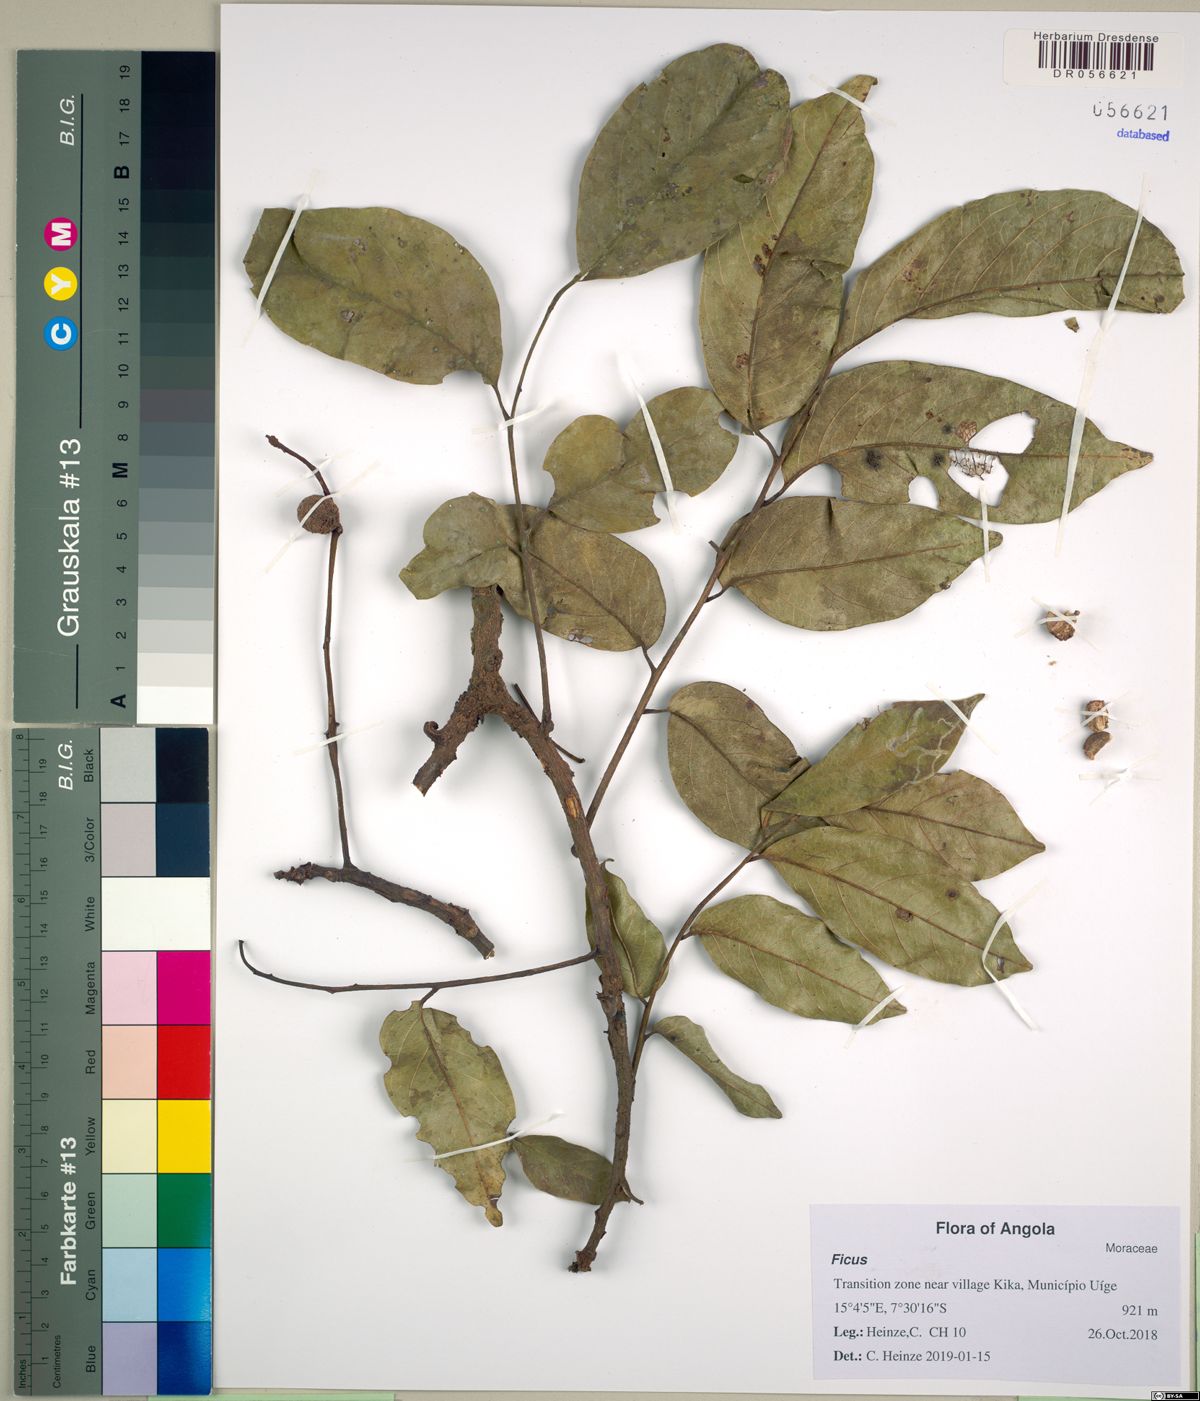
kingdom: Plantae
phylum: Tracheophyta
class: Magnoliopsida
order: Rosales
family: Moraceae
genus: Ficus
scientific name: Ficus
